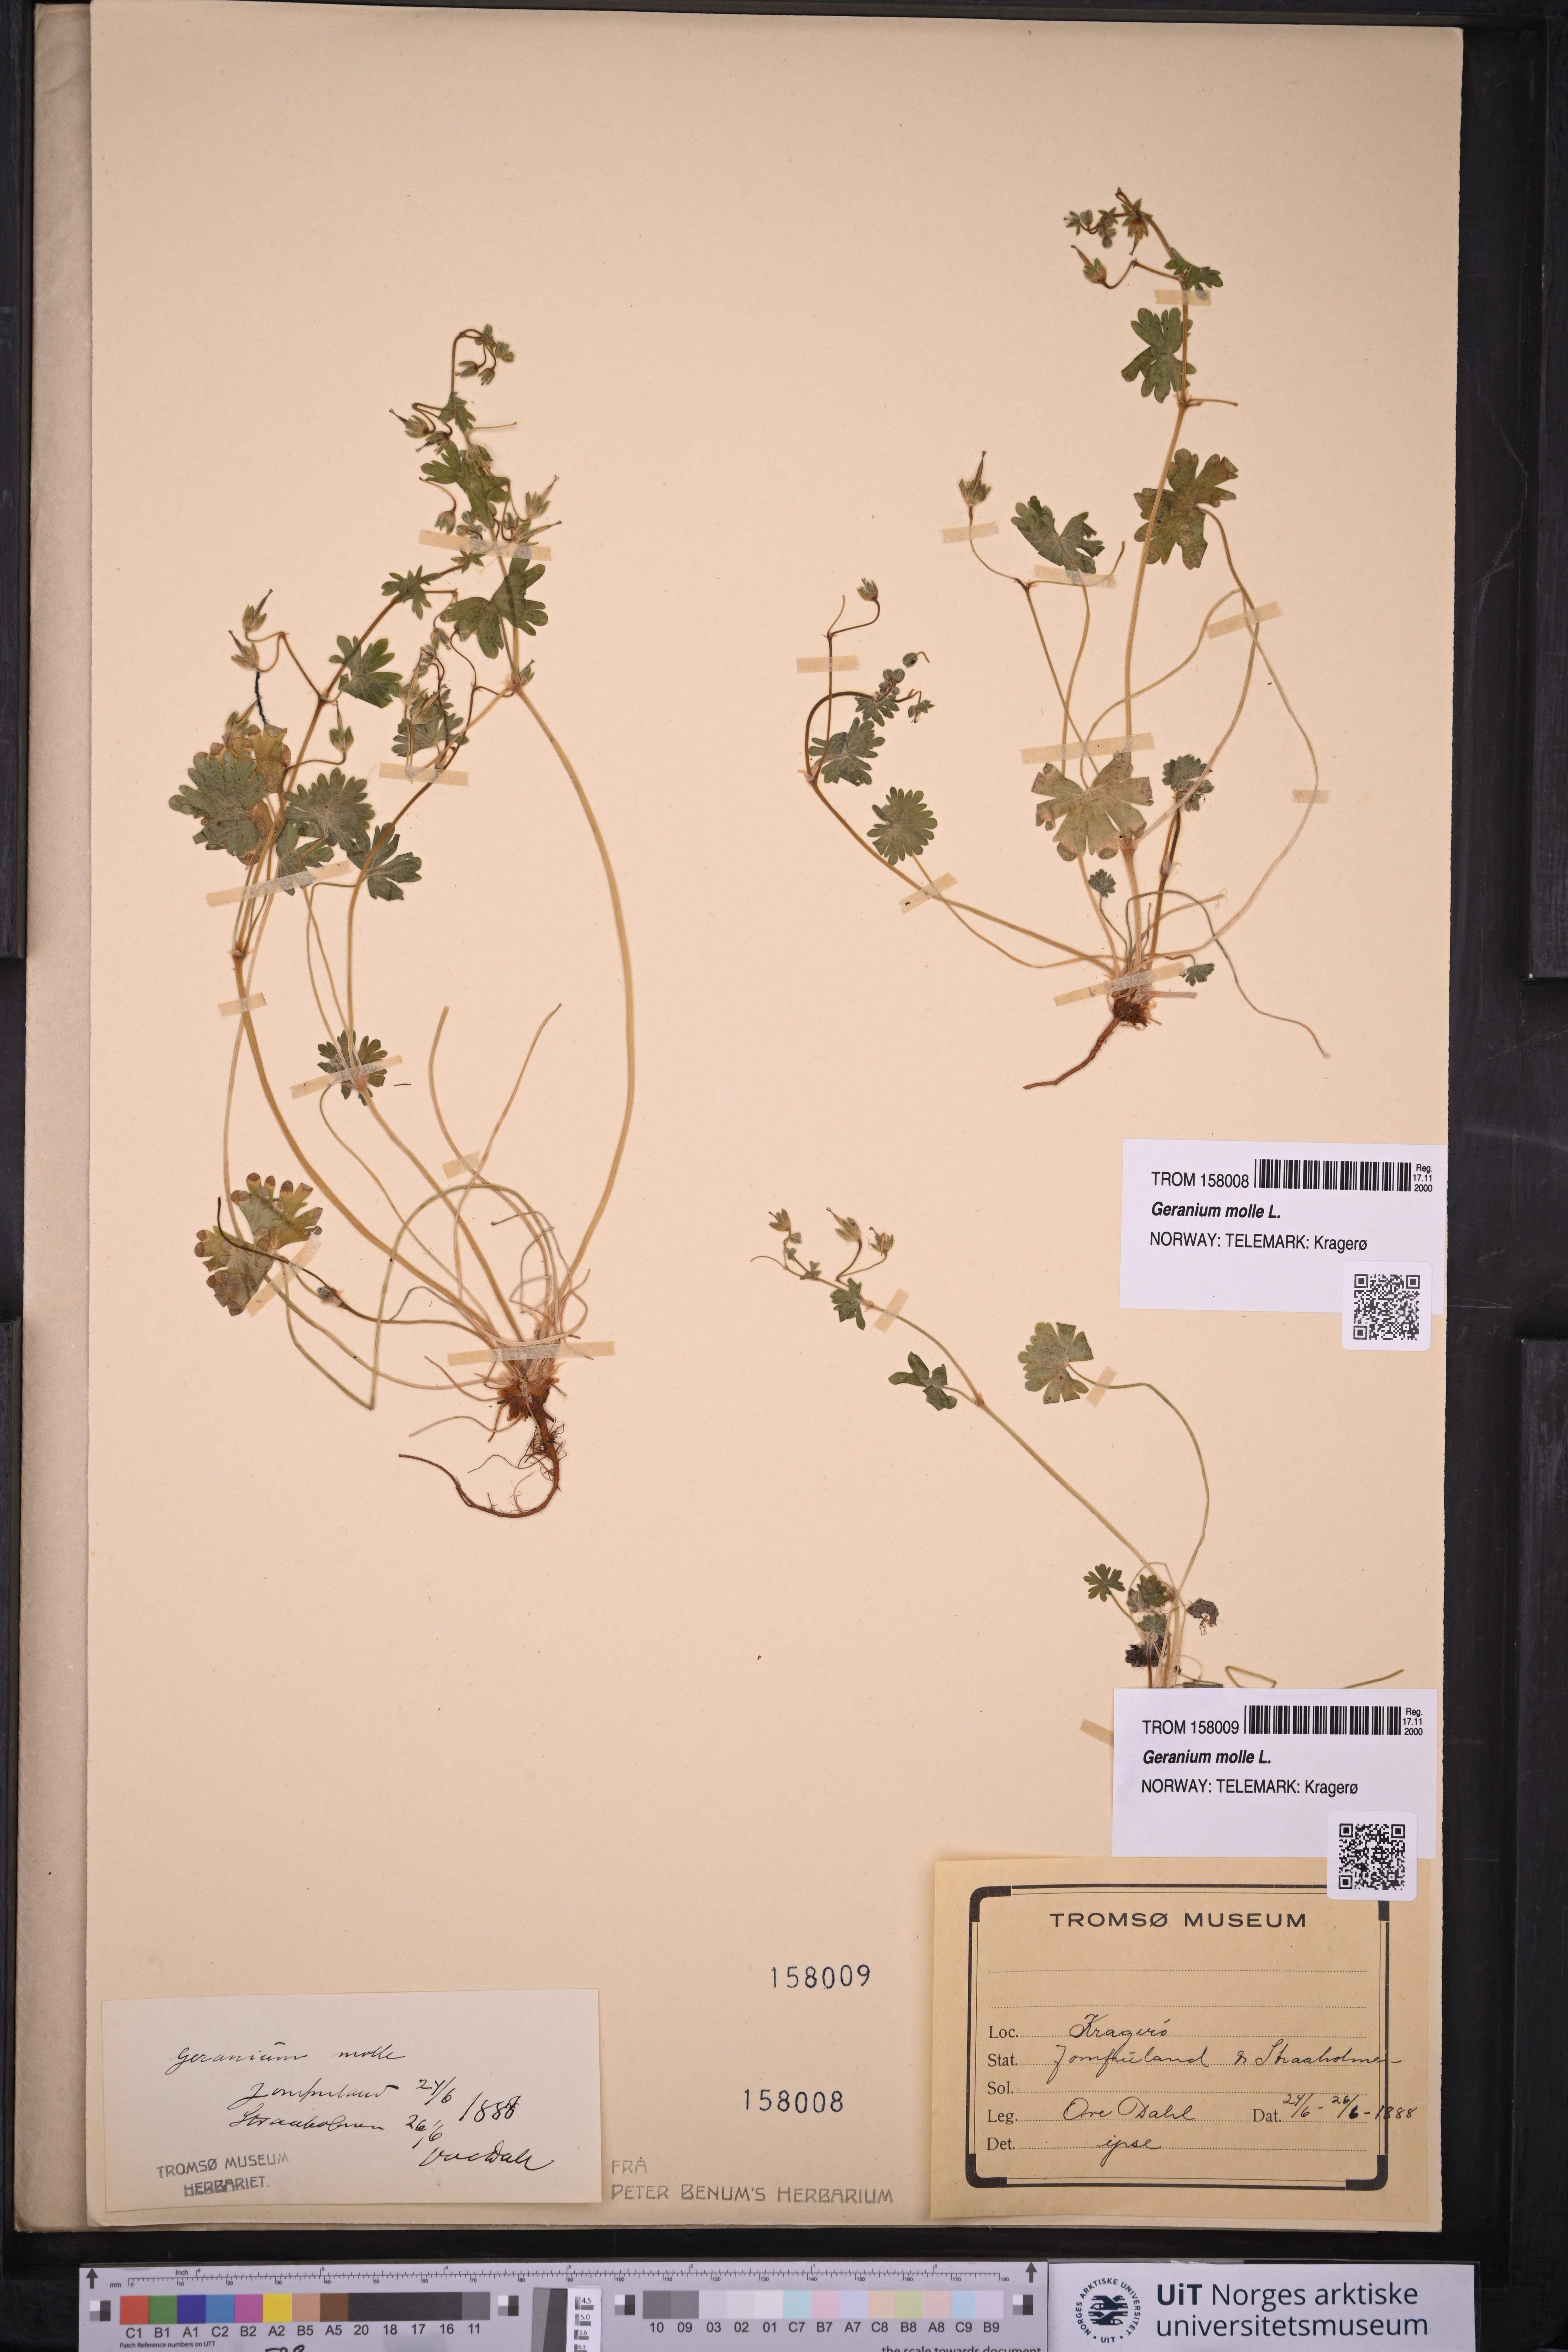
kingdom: Plantae
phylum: Tracheophyta
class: Magnoliopsida
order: Geraniales
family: Geraniaceae
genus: Geranium
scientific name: Geranium molle
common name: Dove's-foot crane's-bill
